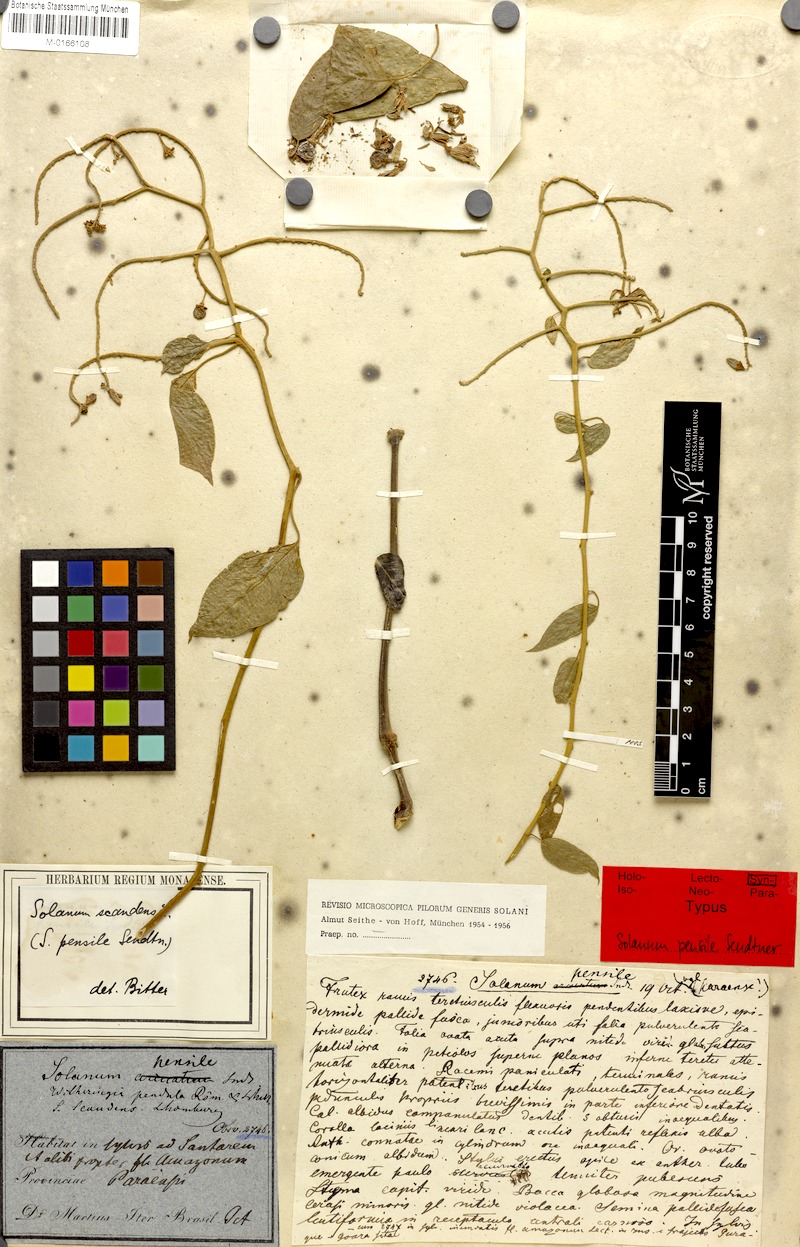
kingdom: Plantae
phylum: Tracheophyta
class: Magnoliopsida
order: Solanales
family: Solanaceae
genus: Solanum
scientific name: Solanum uncinellum
